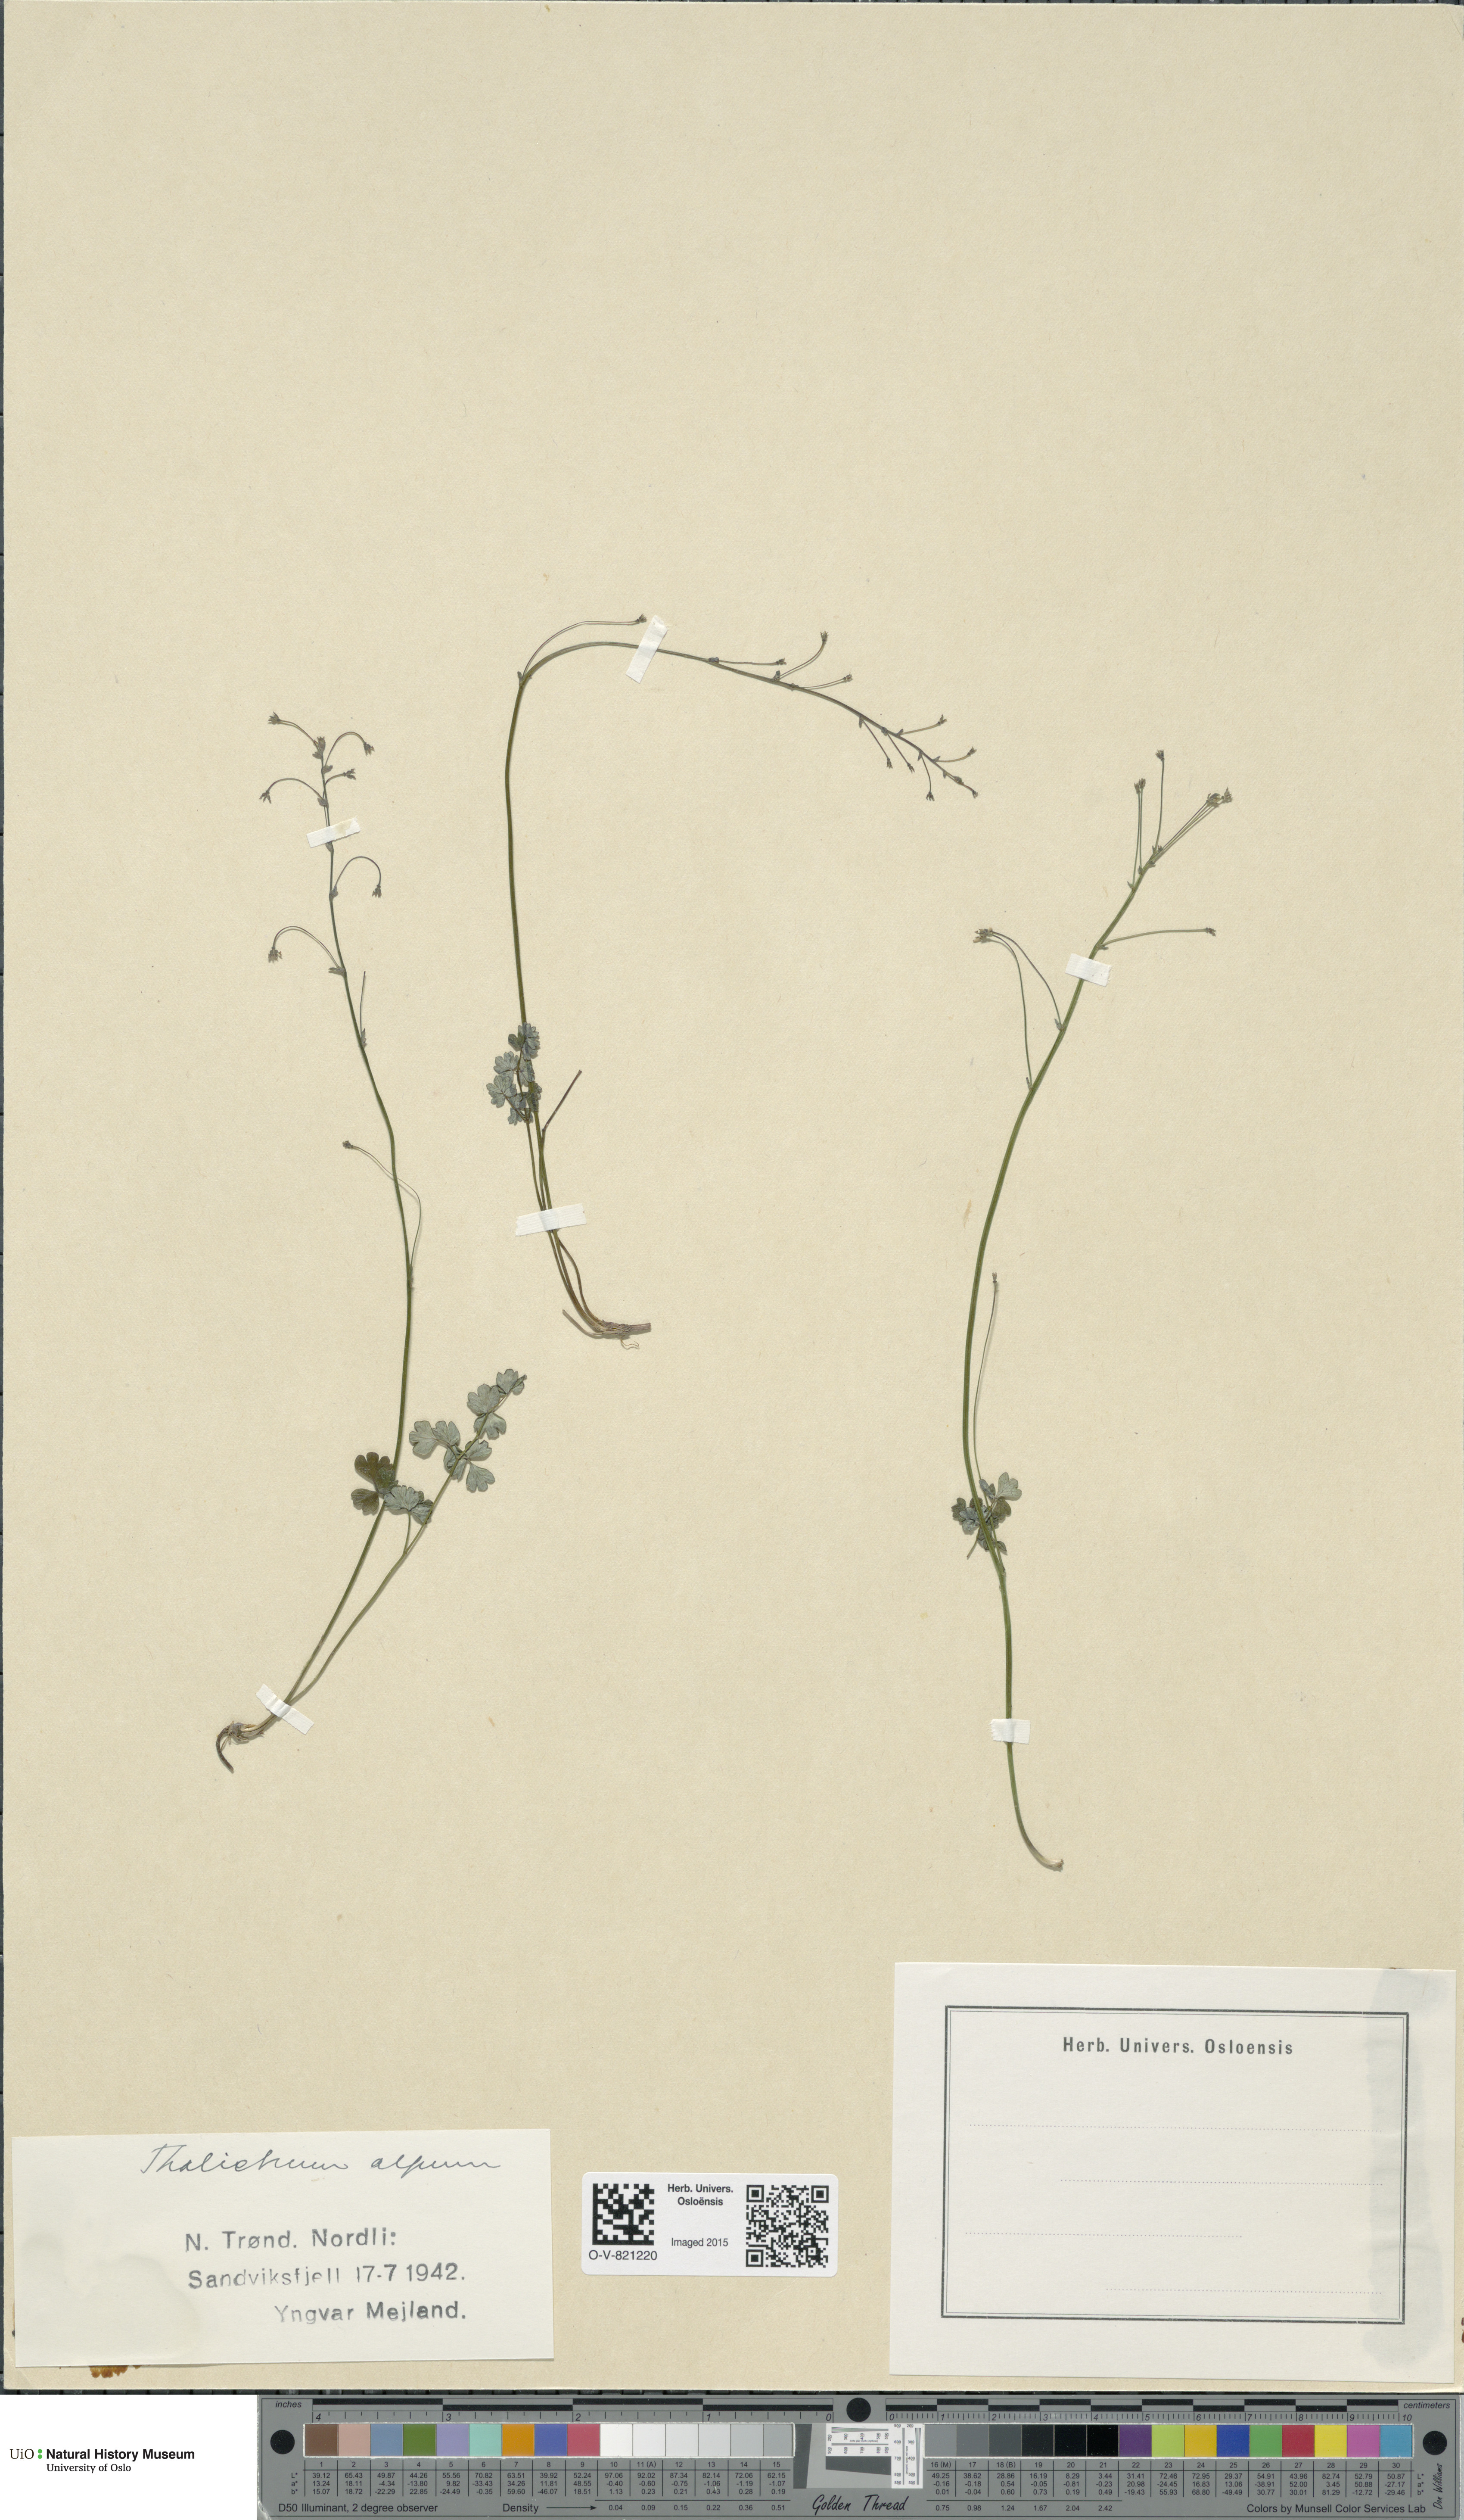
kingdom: Plantae
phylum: Tracheophyta
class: Magnoliopsida
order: Ranunculales
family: Ranunculaceae
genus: Thalictrum
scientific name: Thalictrum alpinum
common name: Alpine meadow-rue
